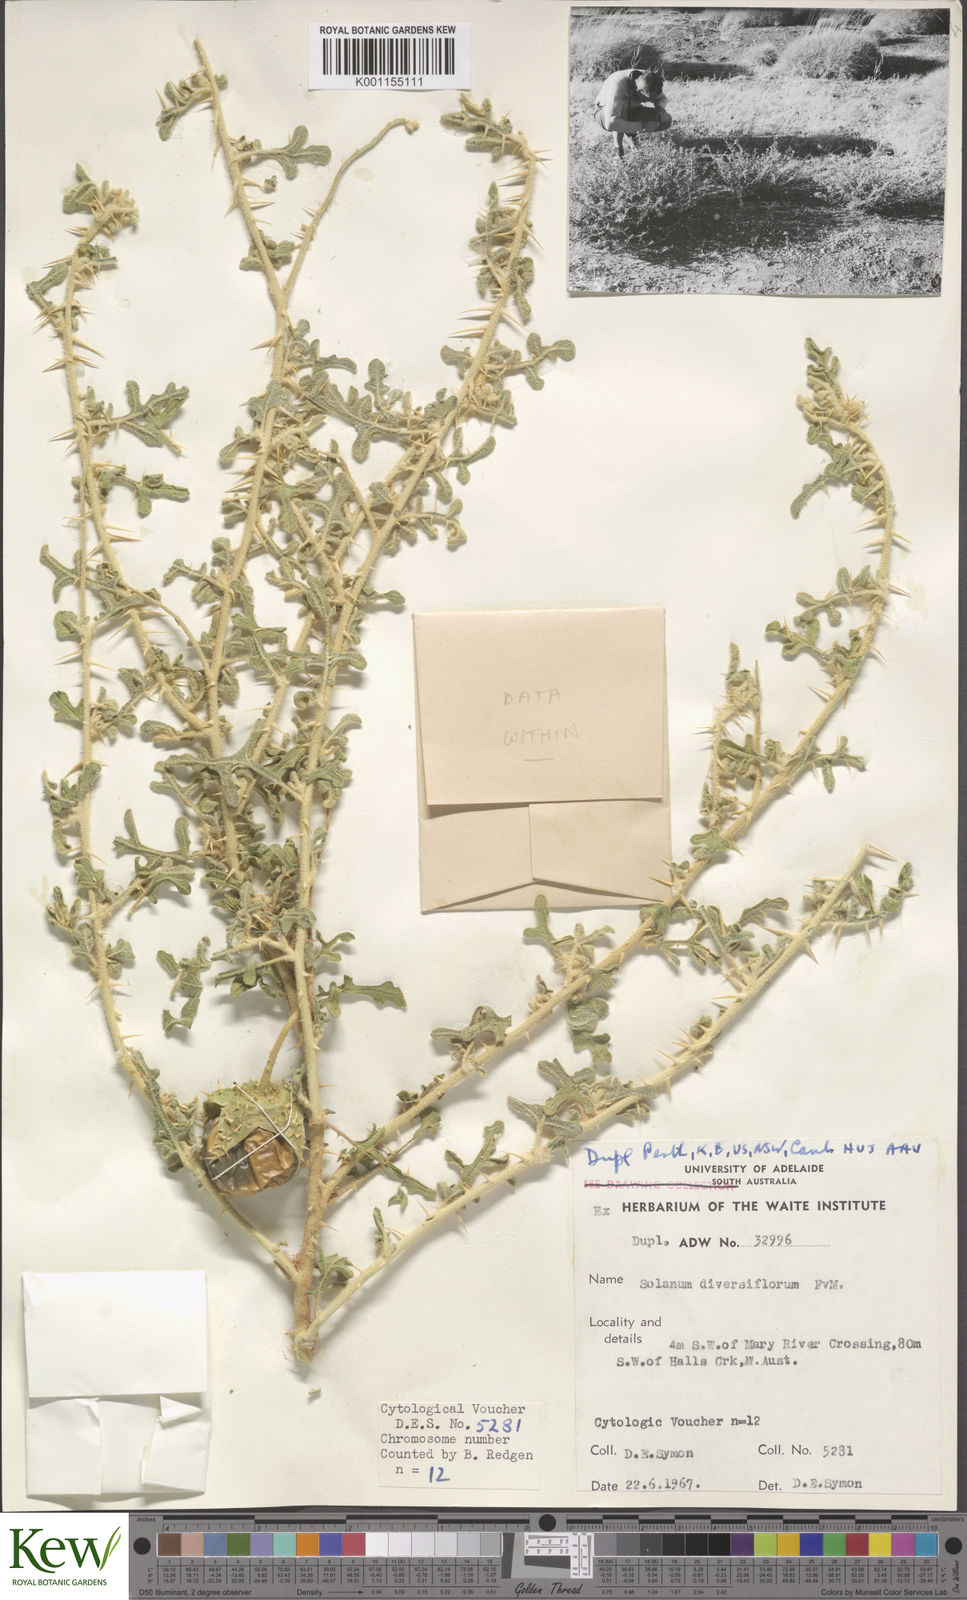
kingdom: Plantae
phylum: Tracheophyta
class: Magnoliopsida
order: Solanales
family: Solanaceae
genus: Solanum
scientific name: Solanum diversiflorum
